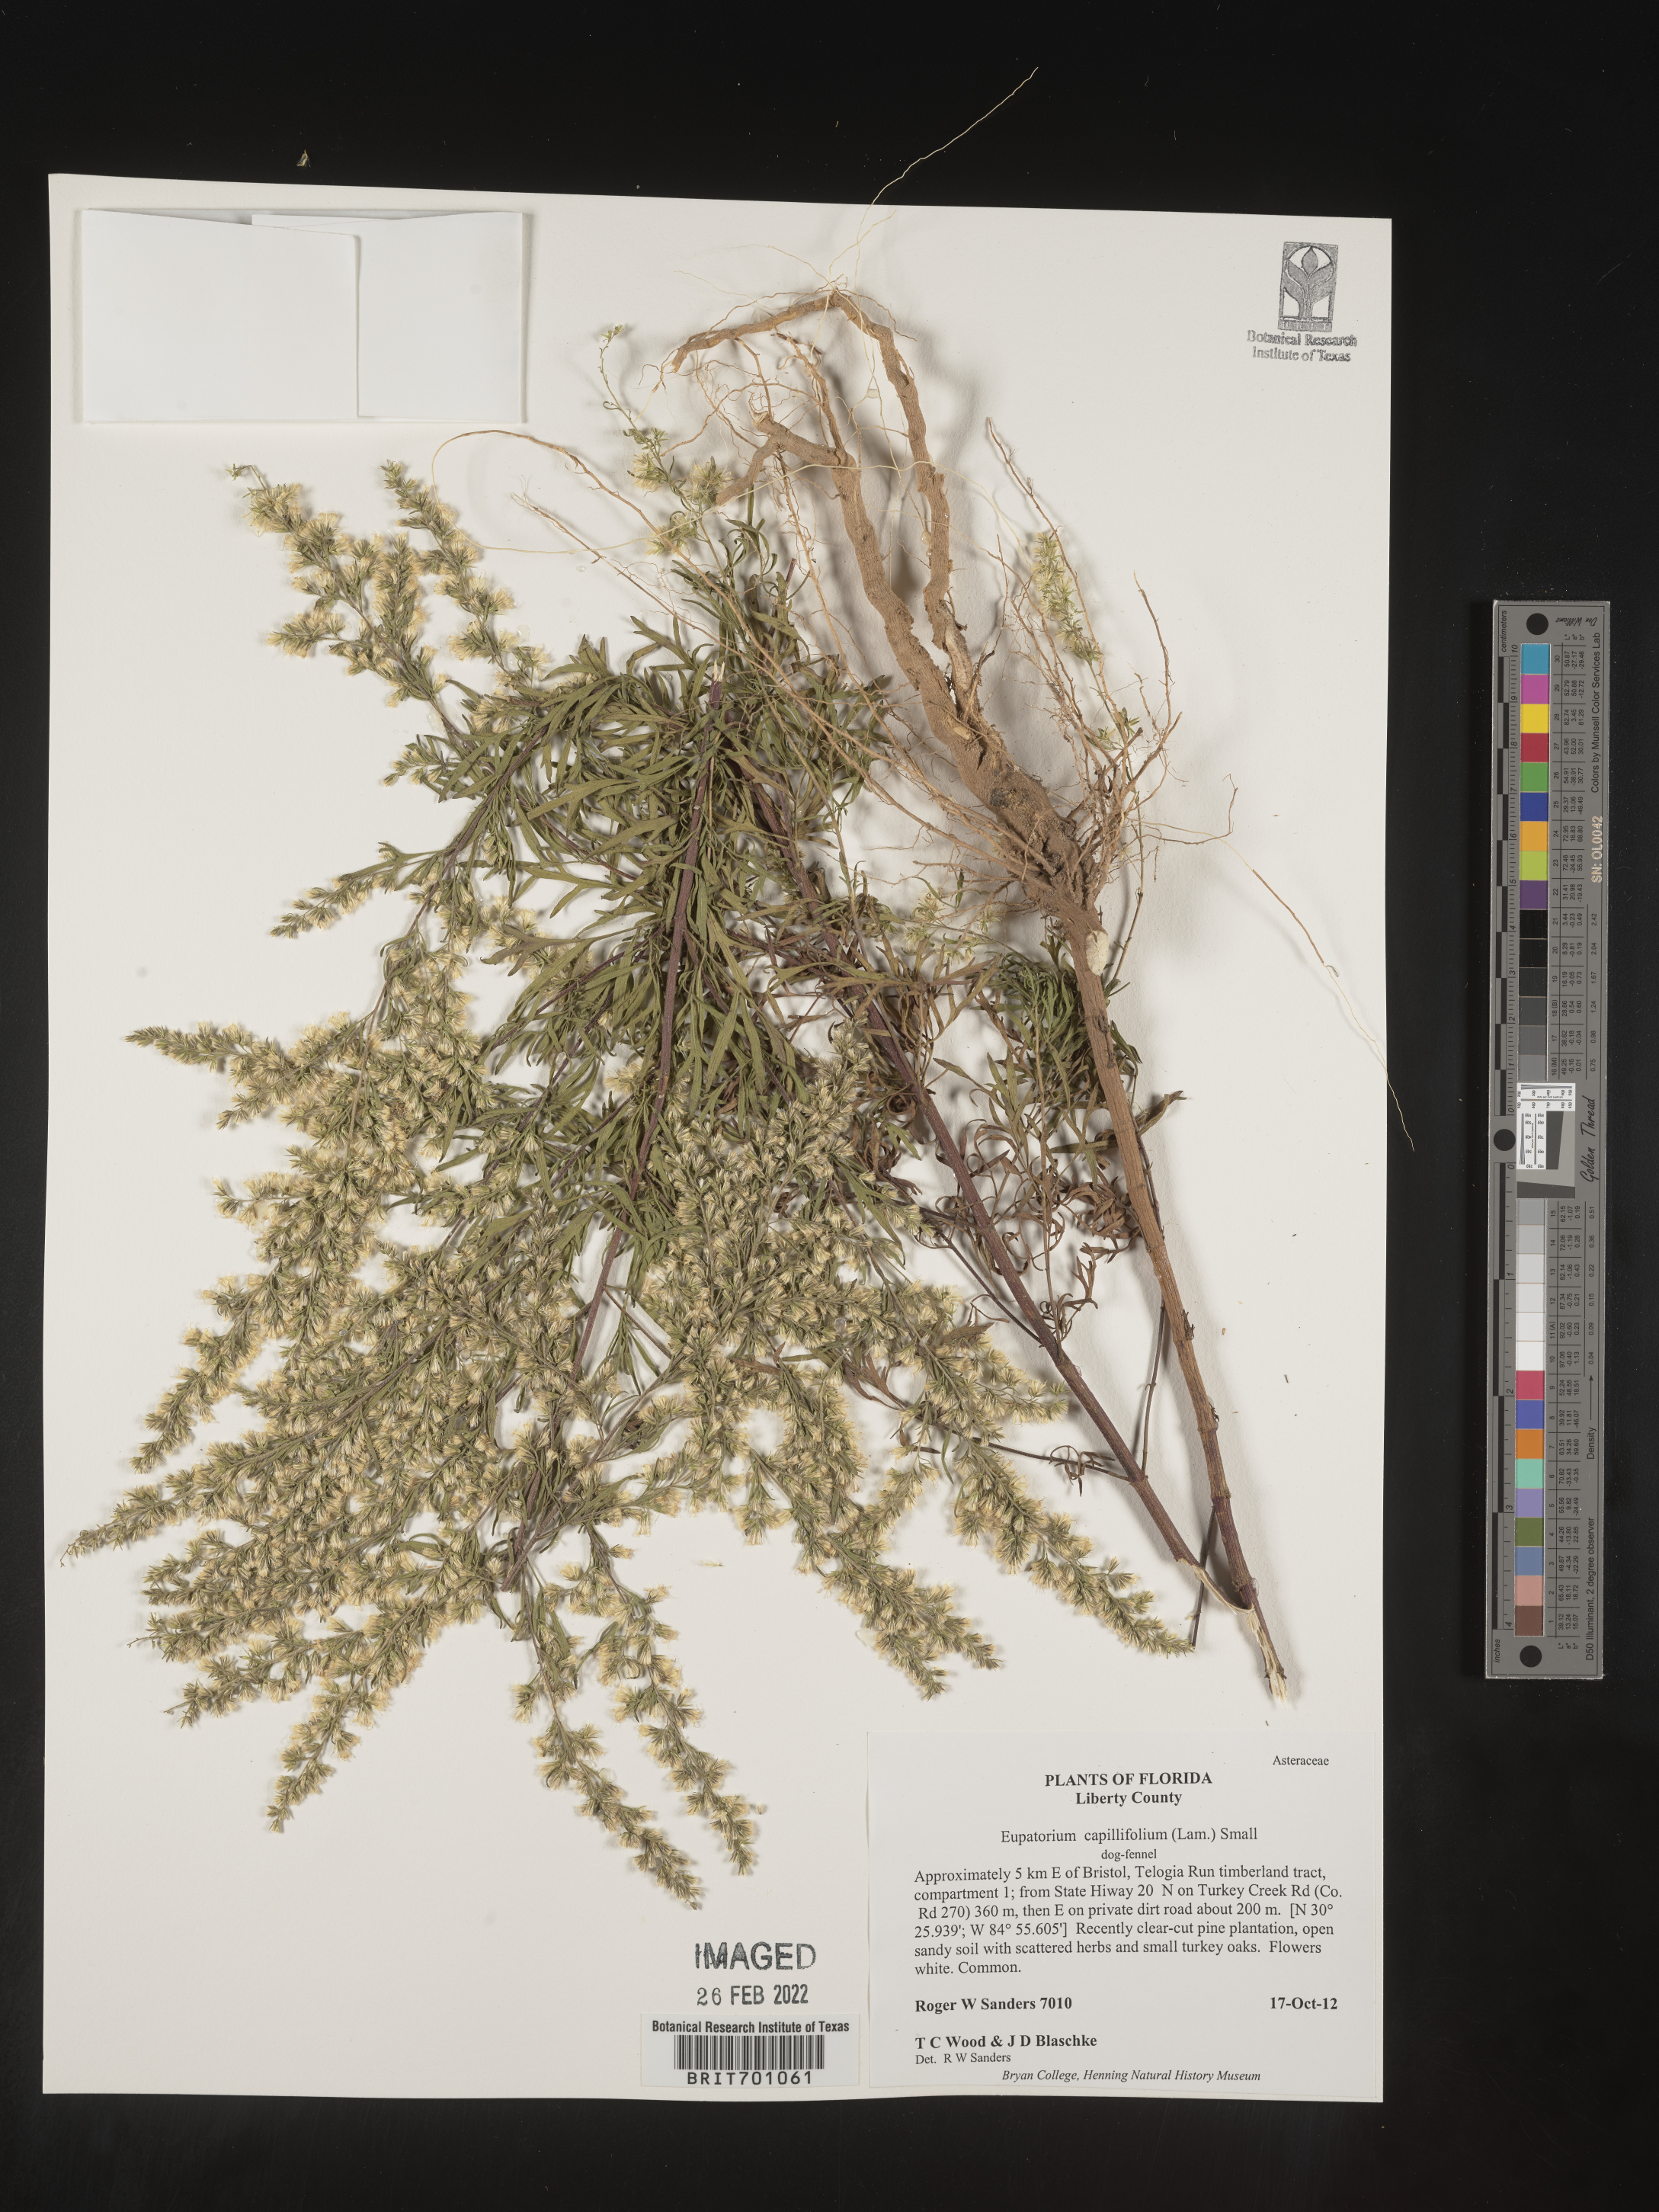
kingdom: Plantae
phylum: Tracheophyta
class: Magnoliopsida
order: Asterales
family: Asteraceae
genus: Eupatorium
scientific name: Eupatorium capillifolium
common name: Dog-fennel
